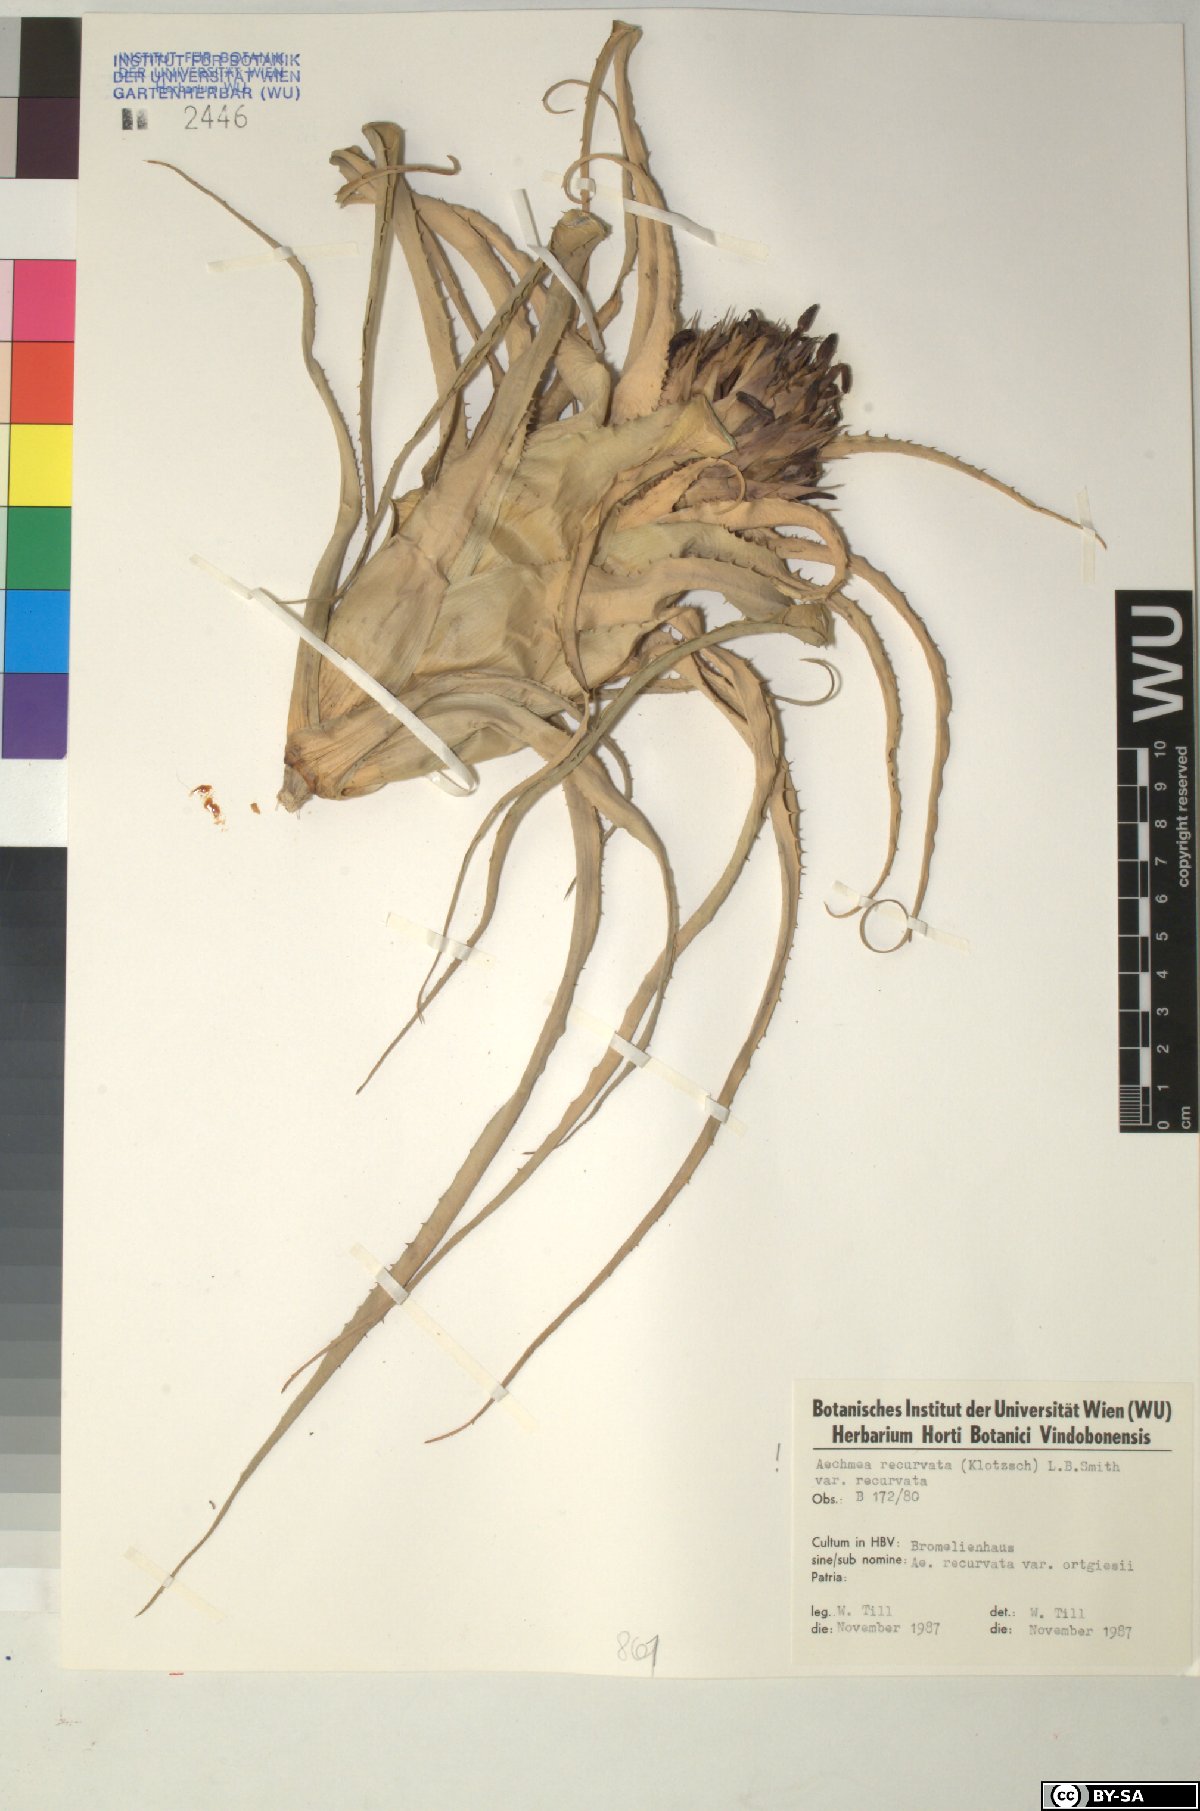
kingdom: Plantae
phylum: Tracheophyta
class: Liliopsida
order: Poales
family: Bromeliaceae
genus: Aechmea
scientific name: Aechmea recurvata
